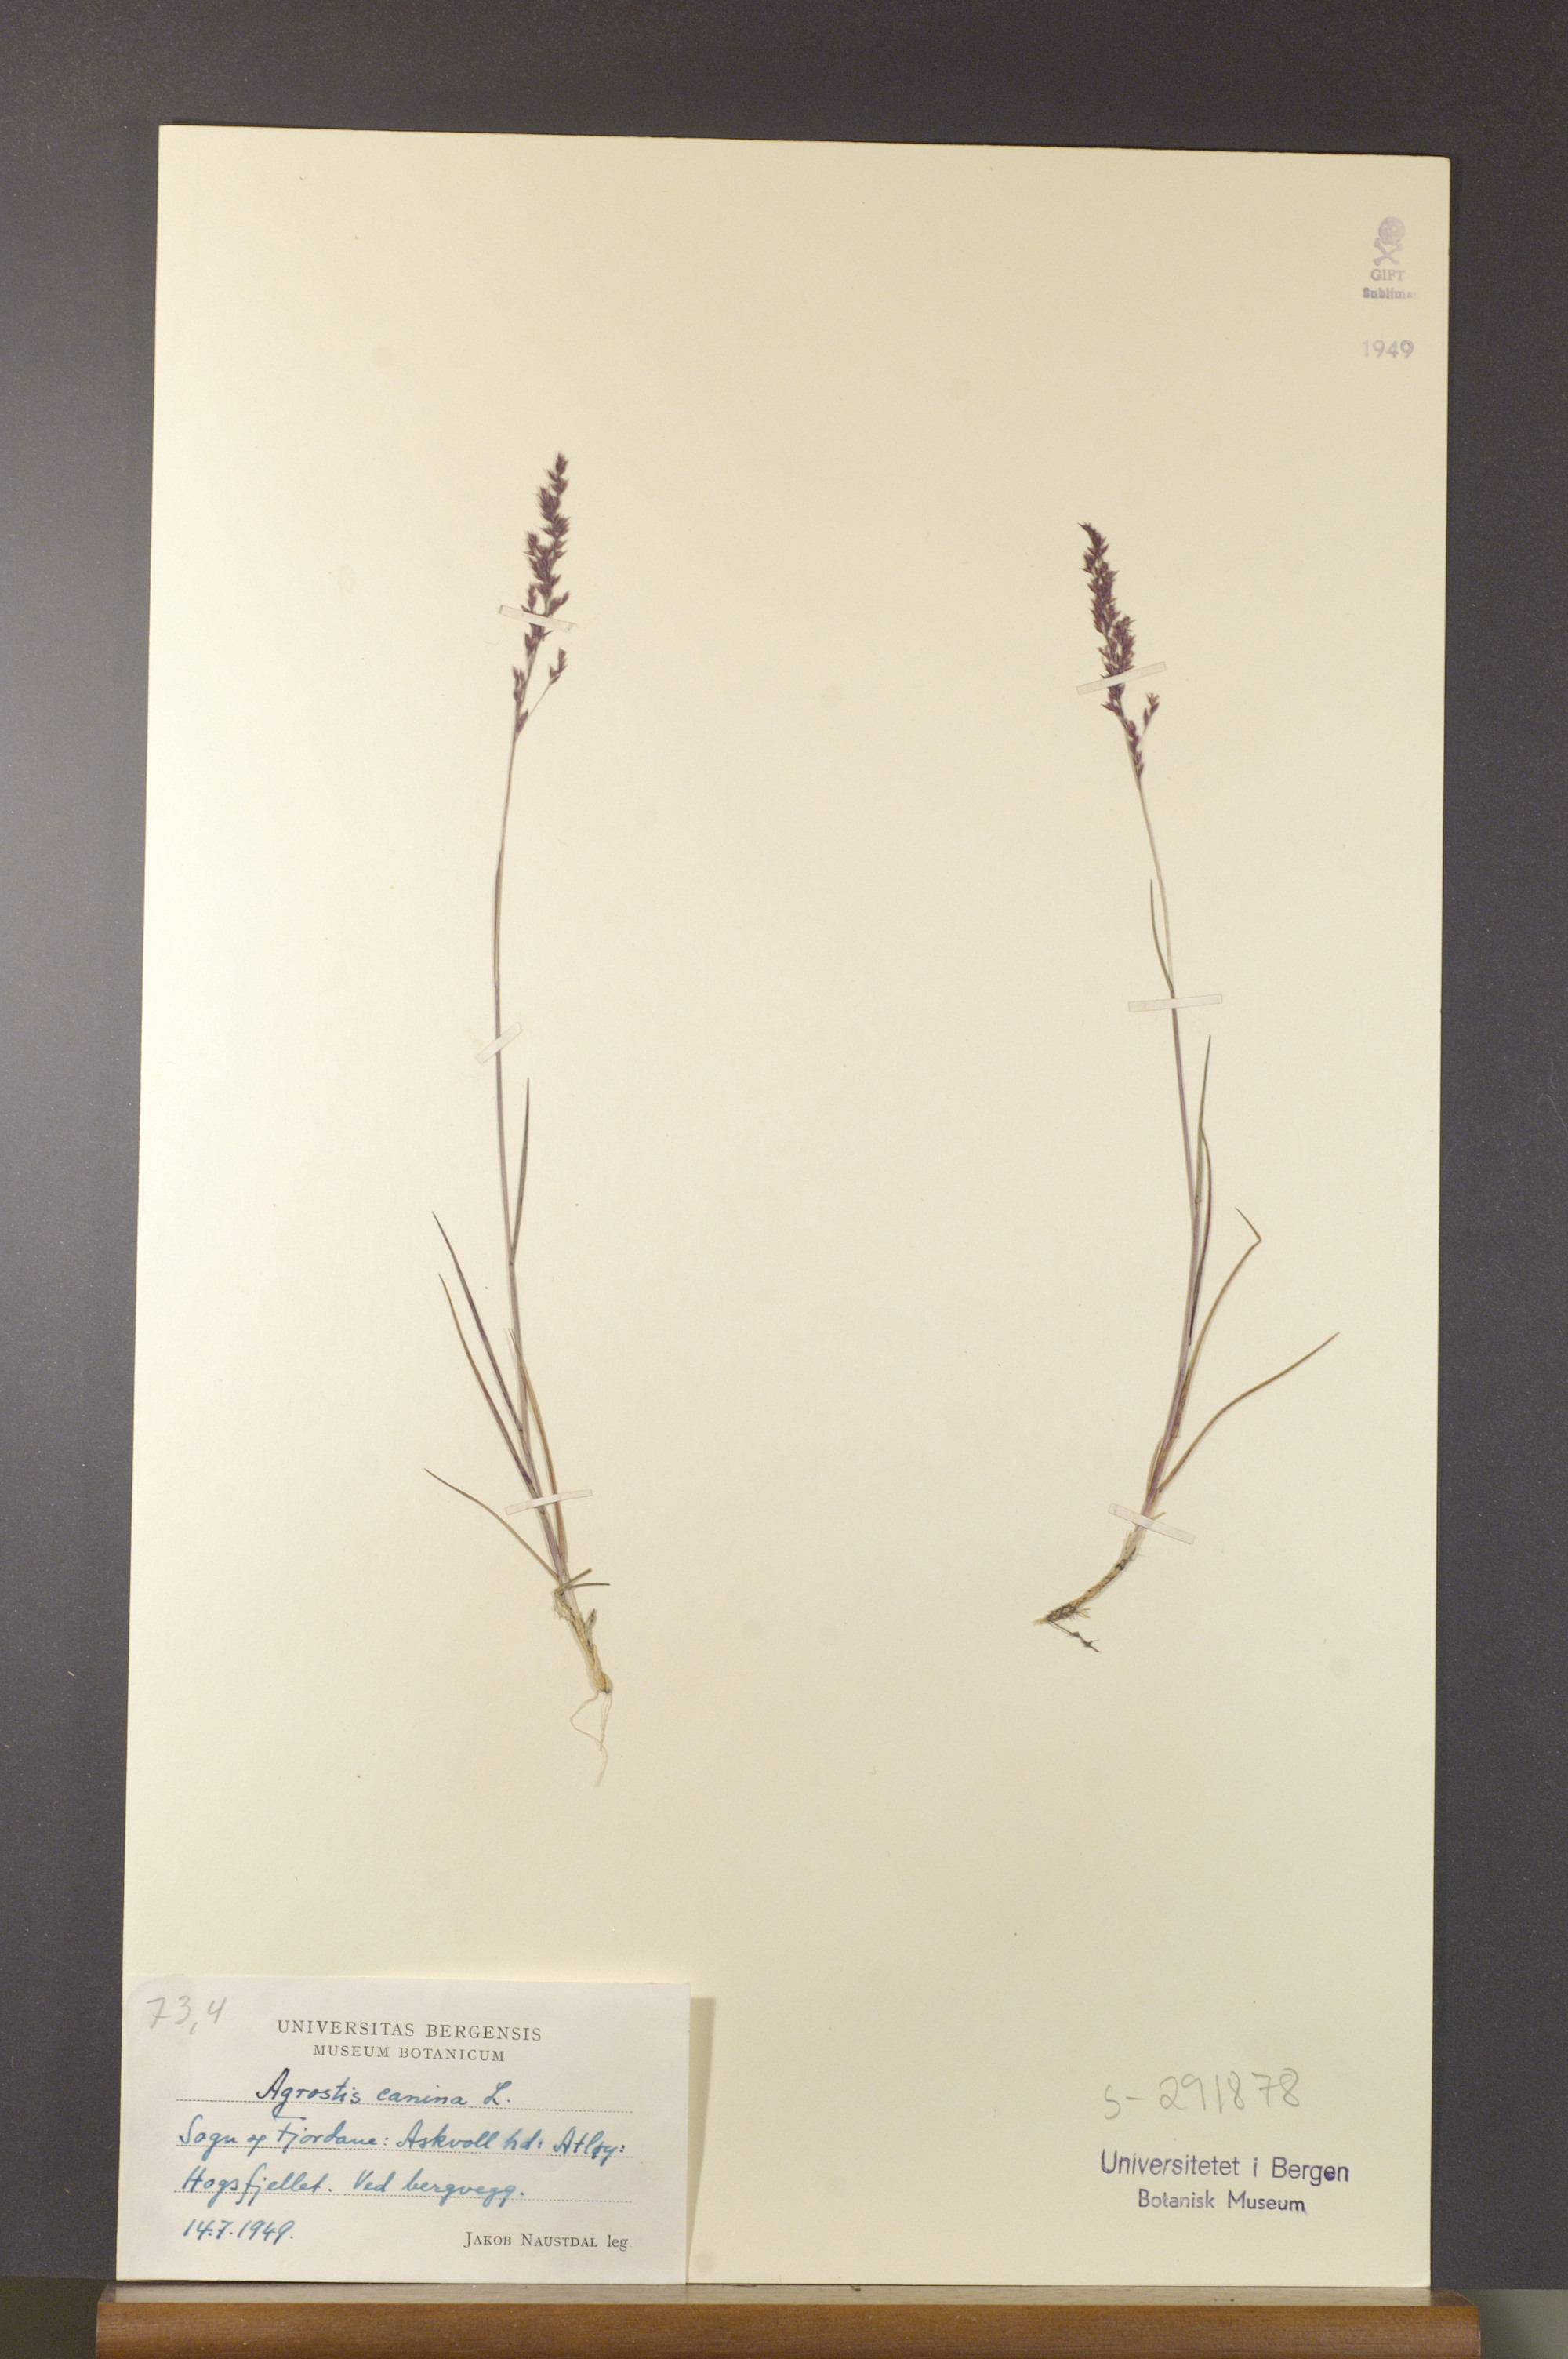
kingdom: Plantae
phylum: Tracheophyta
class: Liliopsida
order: Poales
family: Poaceae
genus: Agrostis
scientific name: Agrostis canina
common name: Velvet bent
